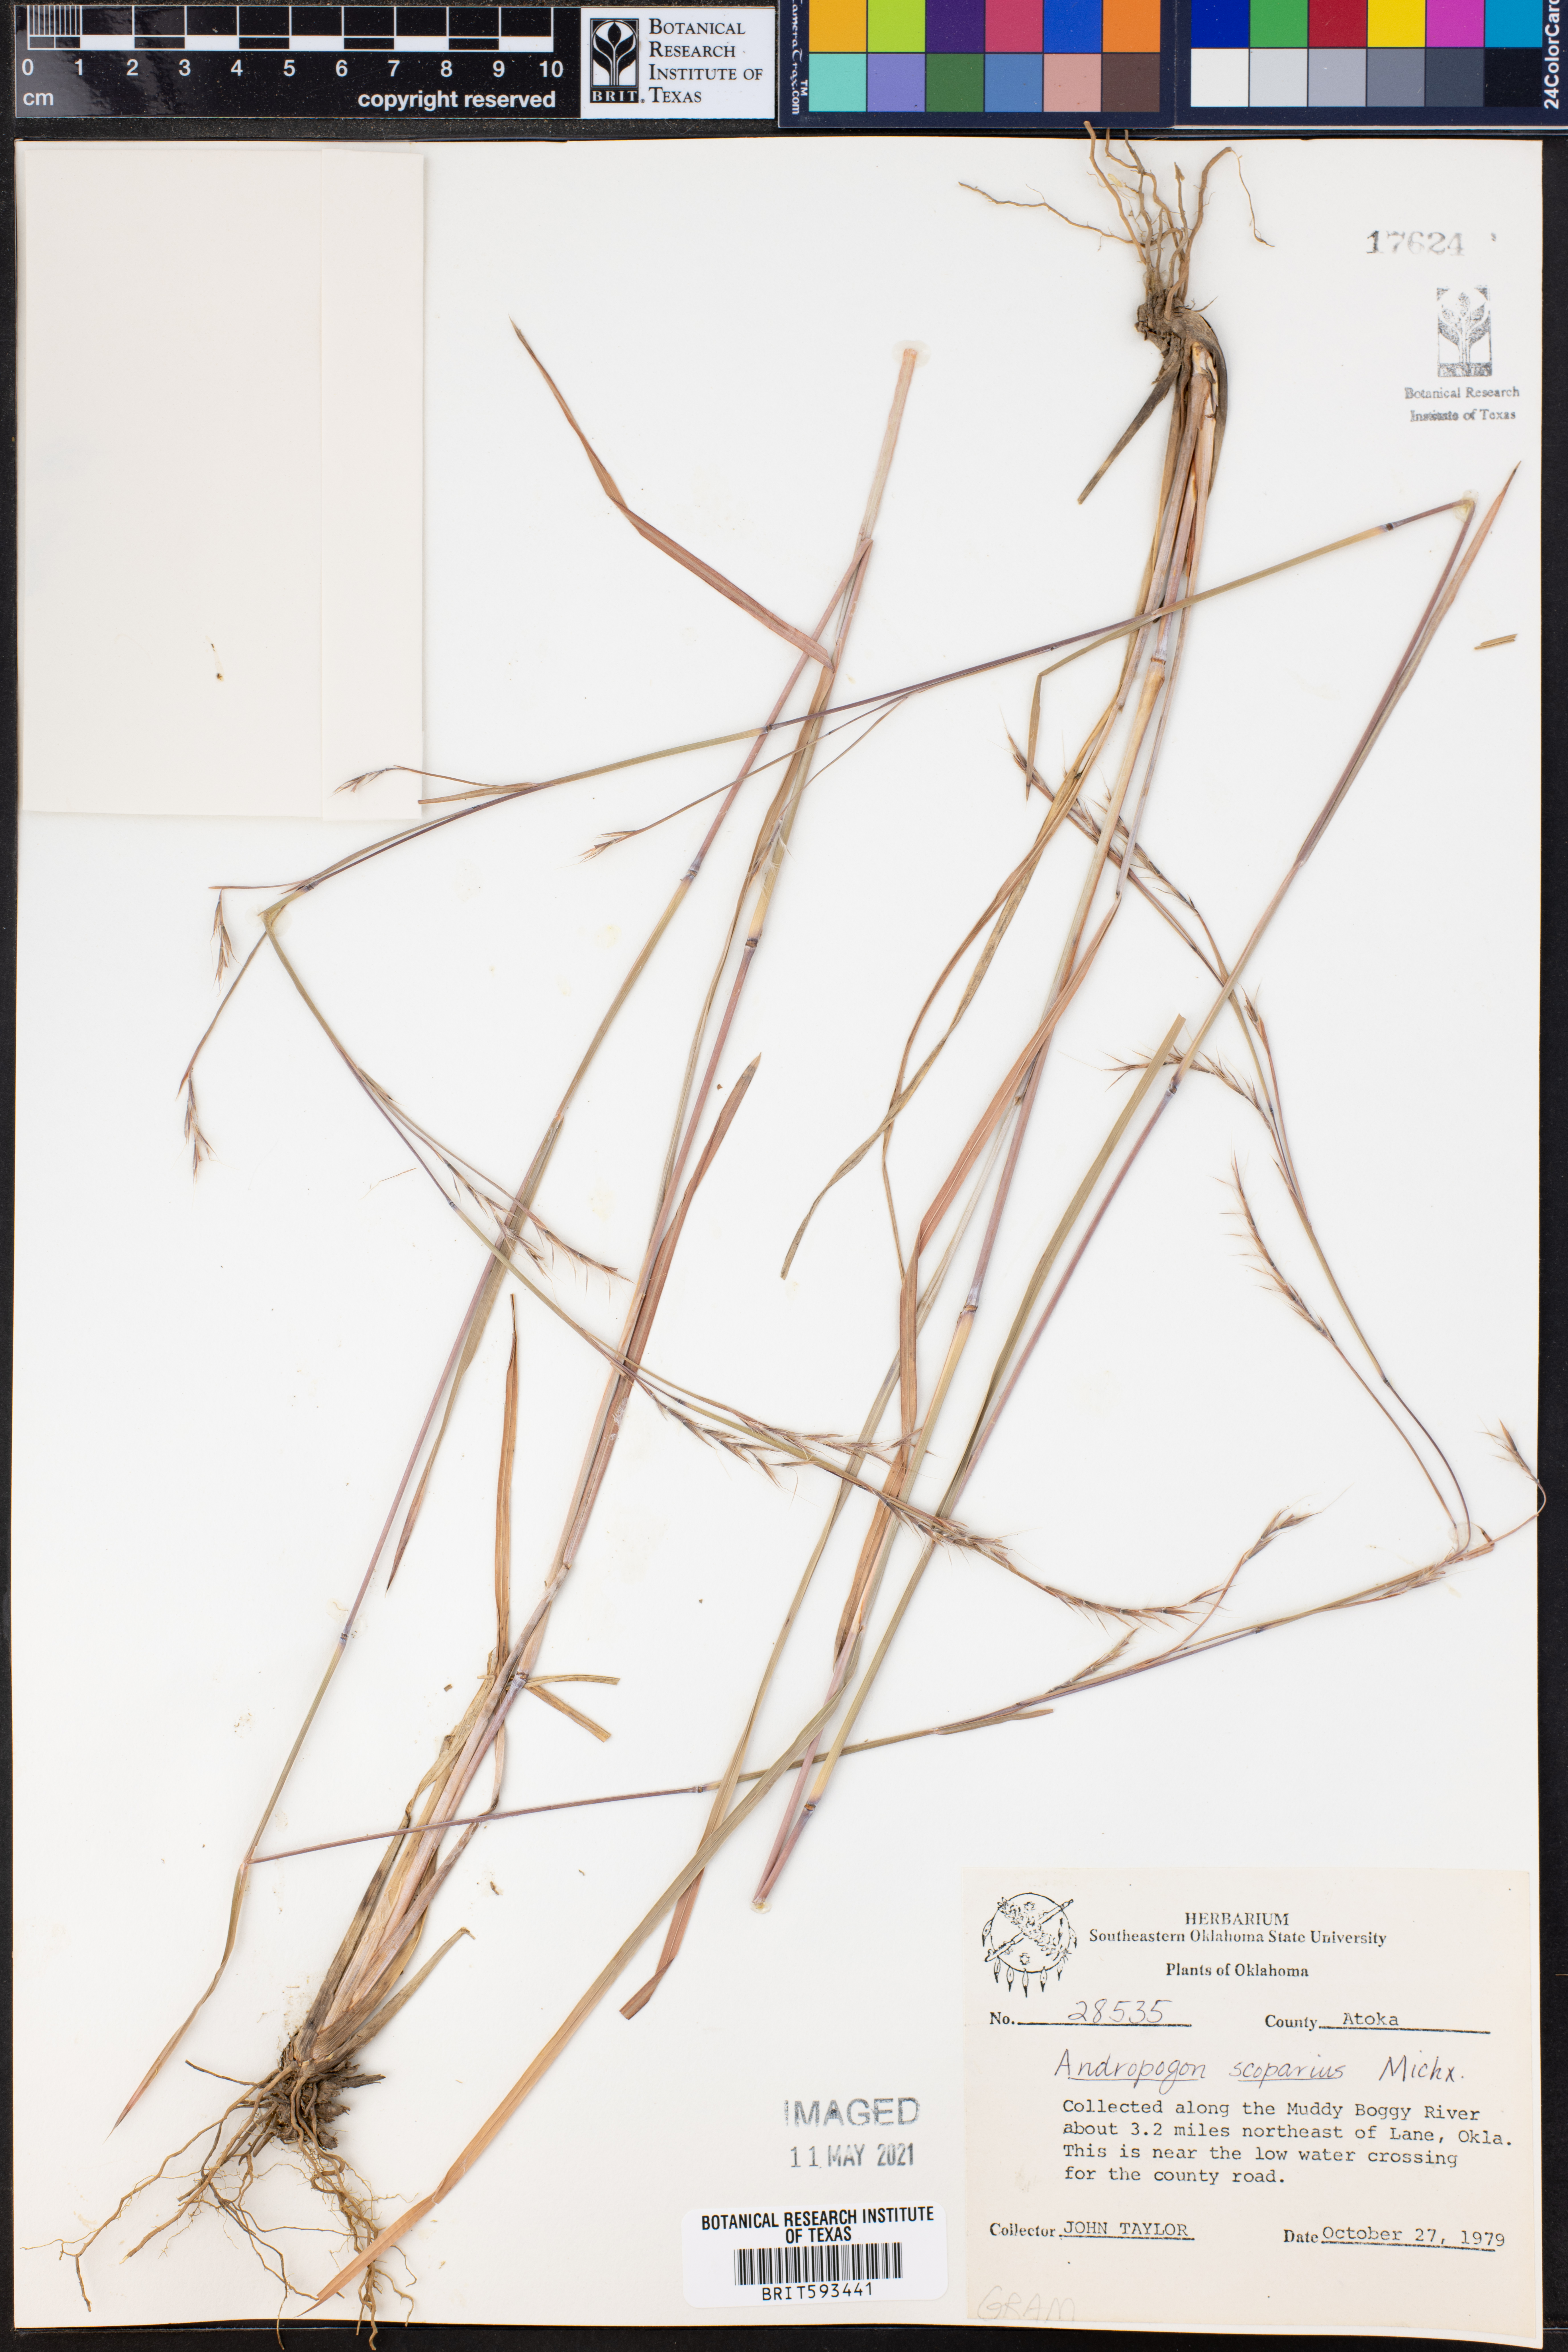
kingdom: Plantae
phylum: Tracheophyta
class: Liliopsida
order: Poales
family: Poaceae
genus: Schizachyrium
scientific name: Schizachyrium scoparium
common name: Little bluestem
